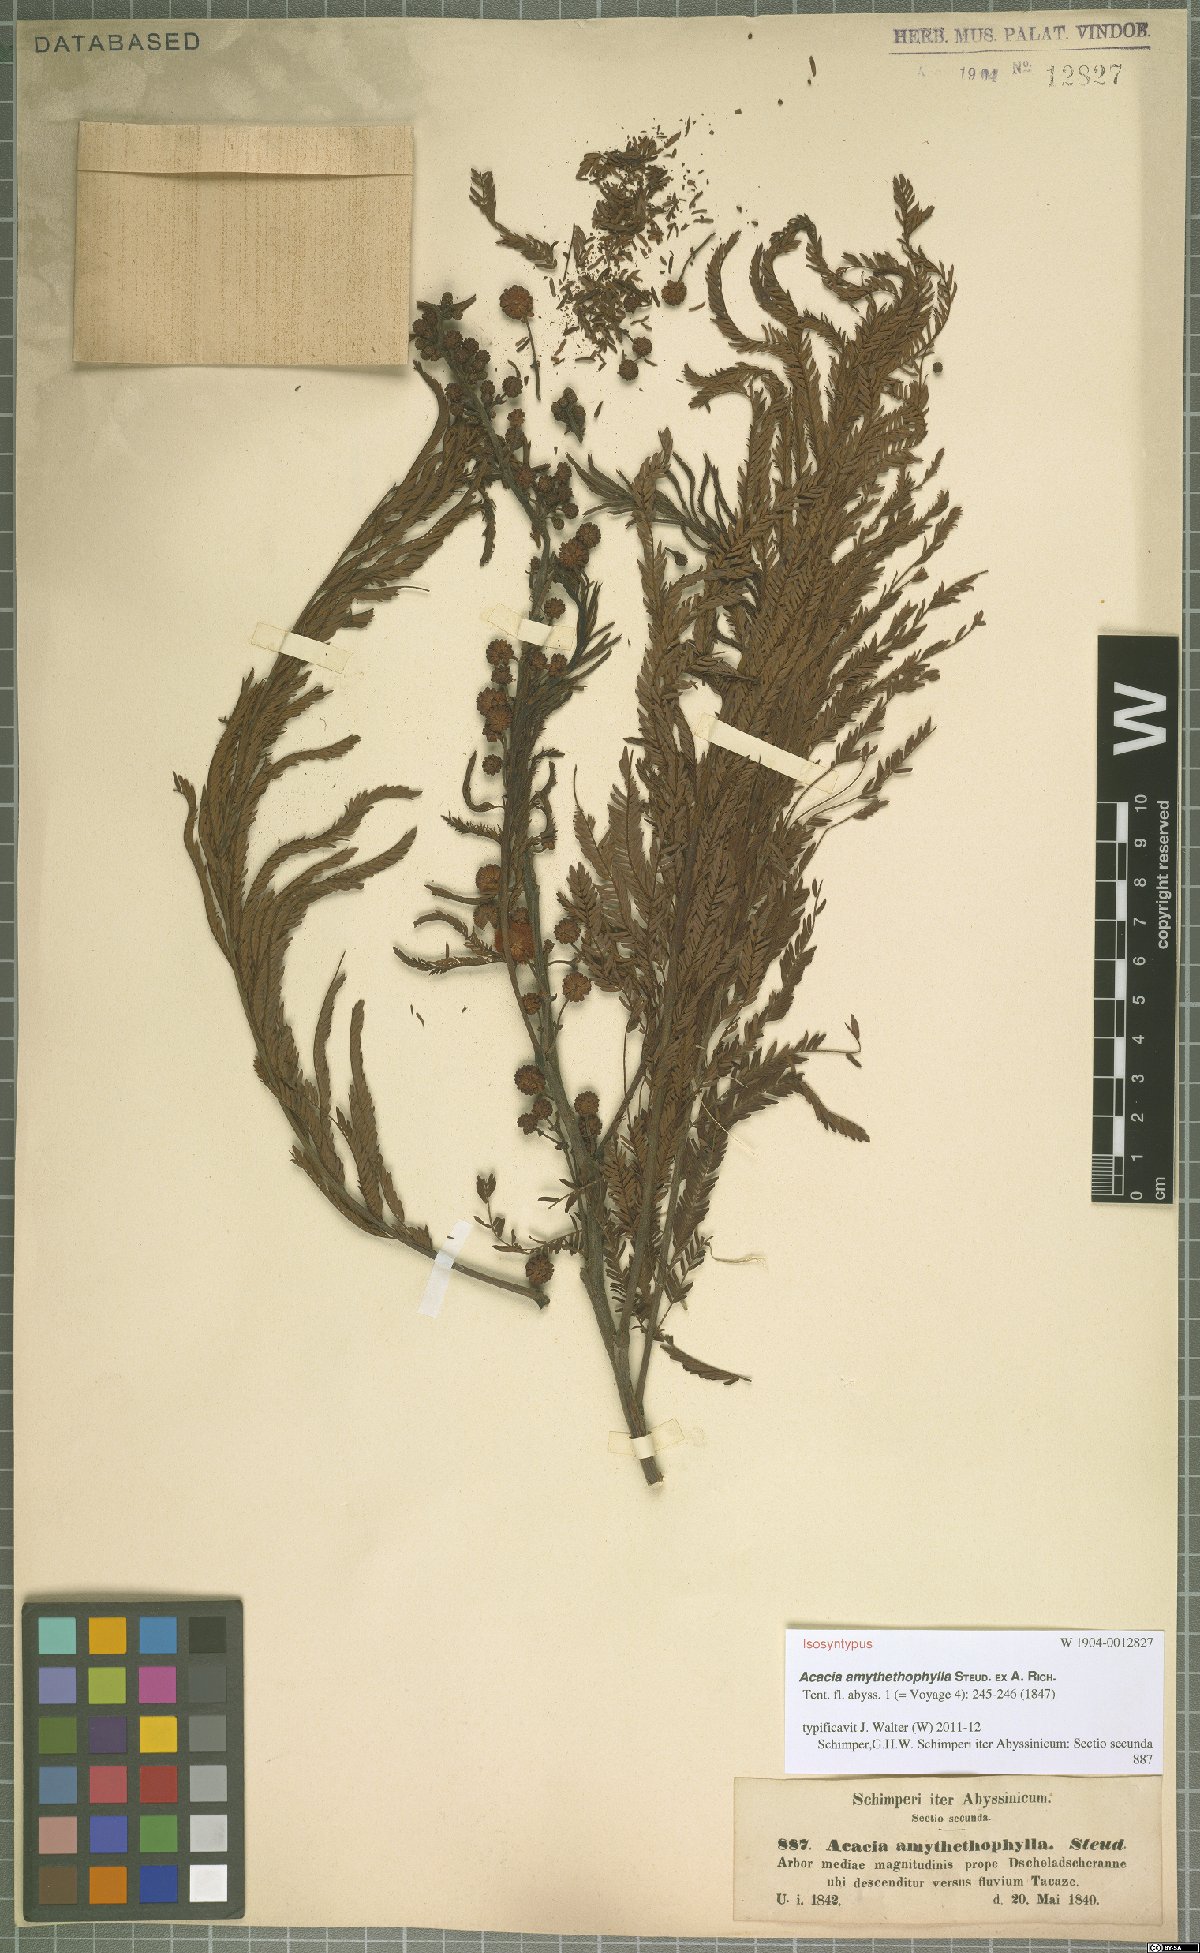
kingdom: Plantae
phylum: Tracheophyta
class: Magnoliopsida
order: Fabales
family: Fabaceae
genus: Vachellia
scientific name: Vachellia amythethophylla
